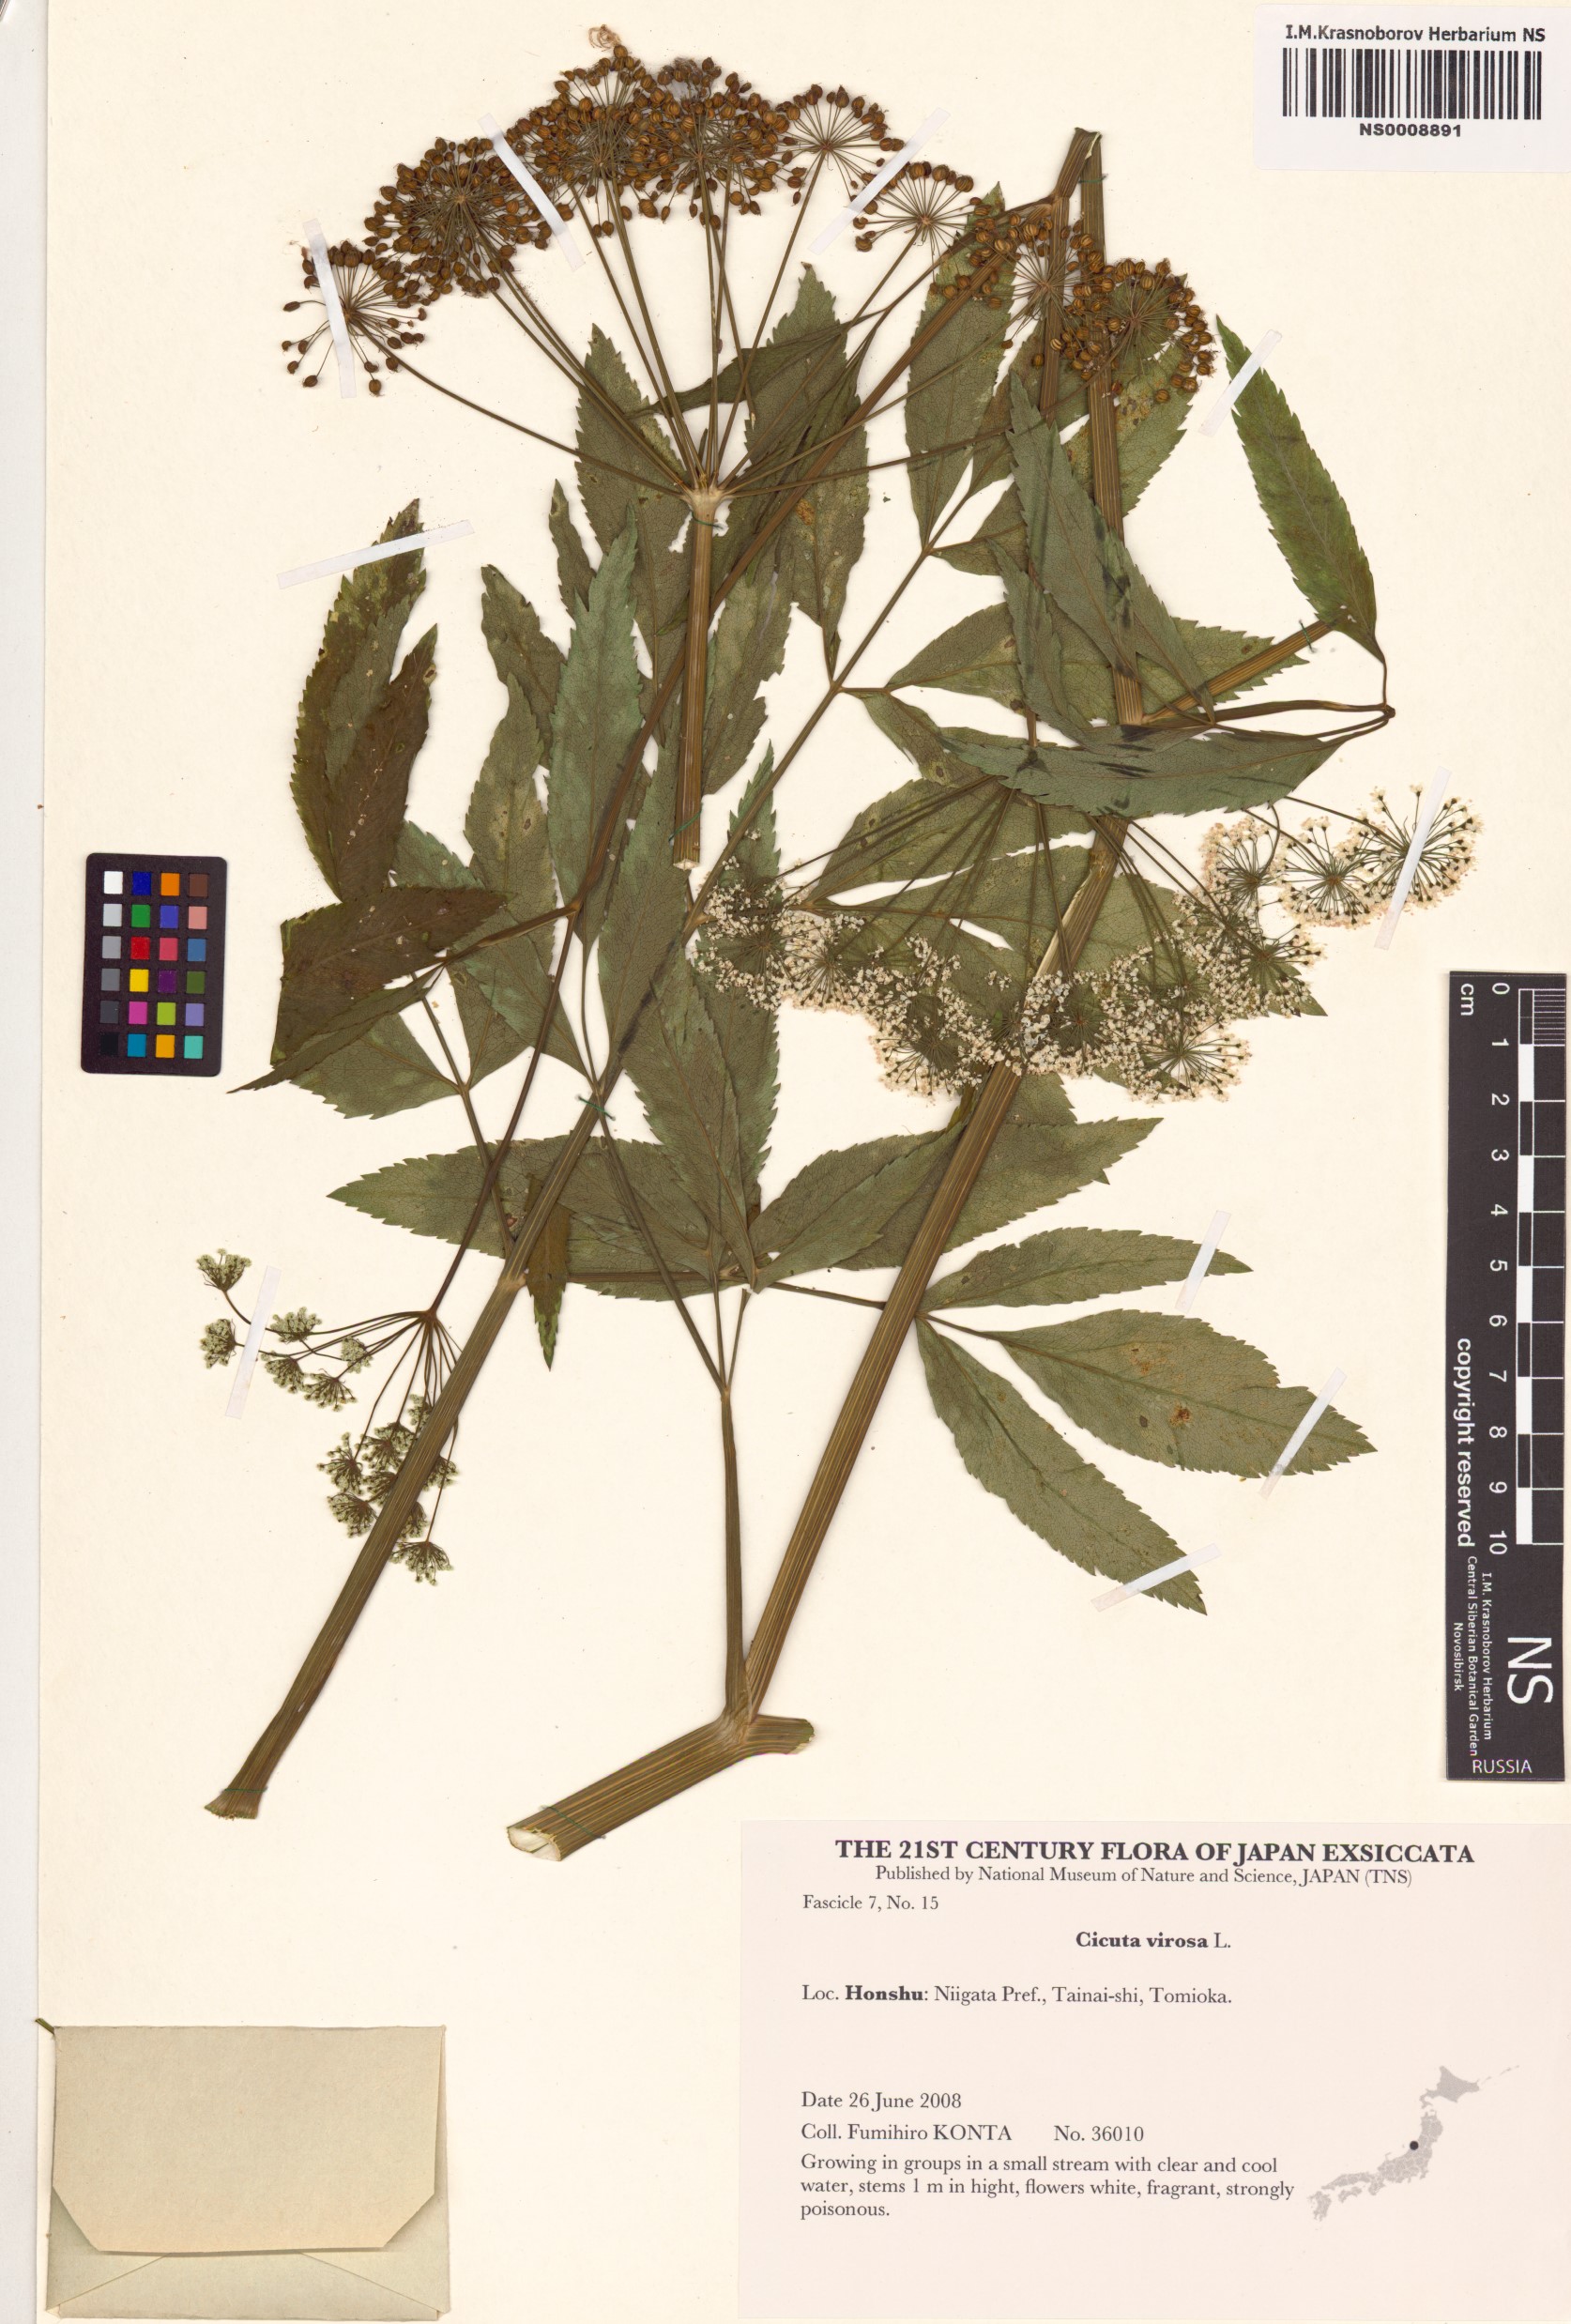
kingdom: Plantae
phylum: Tracheophyta
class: Magnoliopsida
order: Apiales
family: Apiaceae
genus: Cicuta
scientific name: Cicuta virosa
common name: Cowbane
